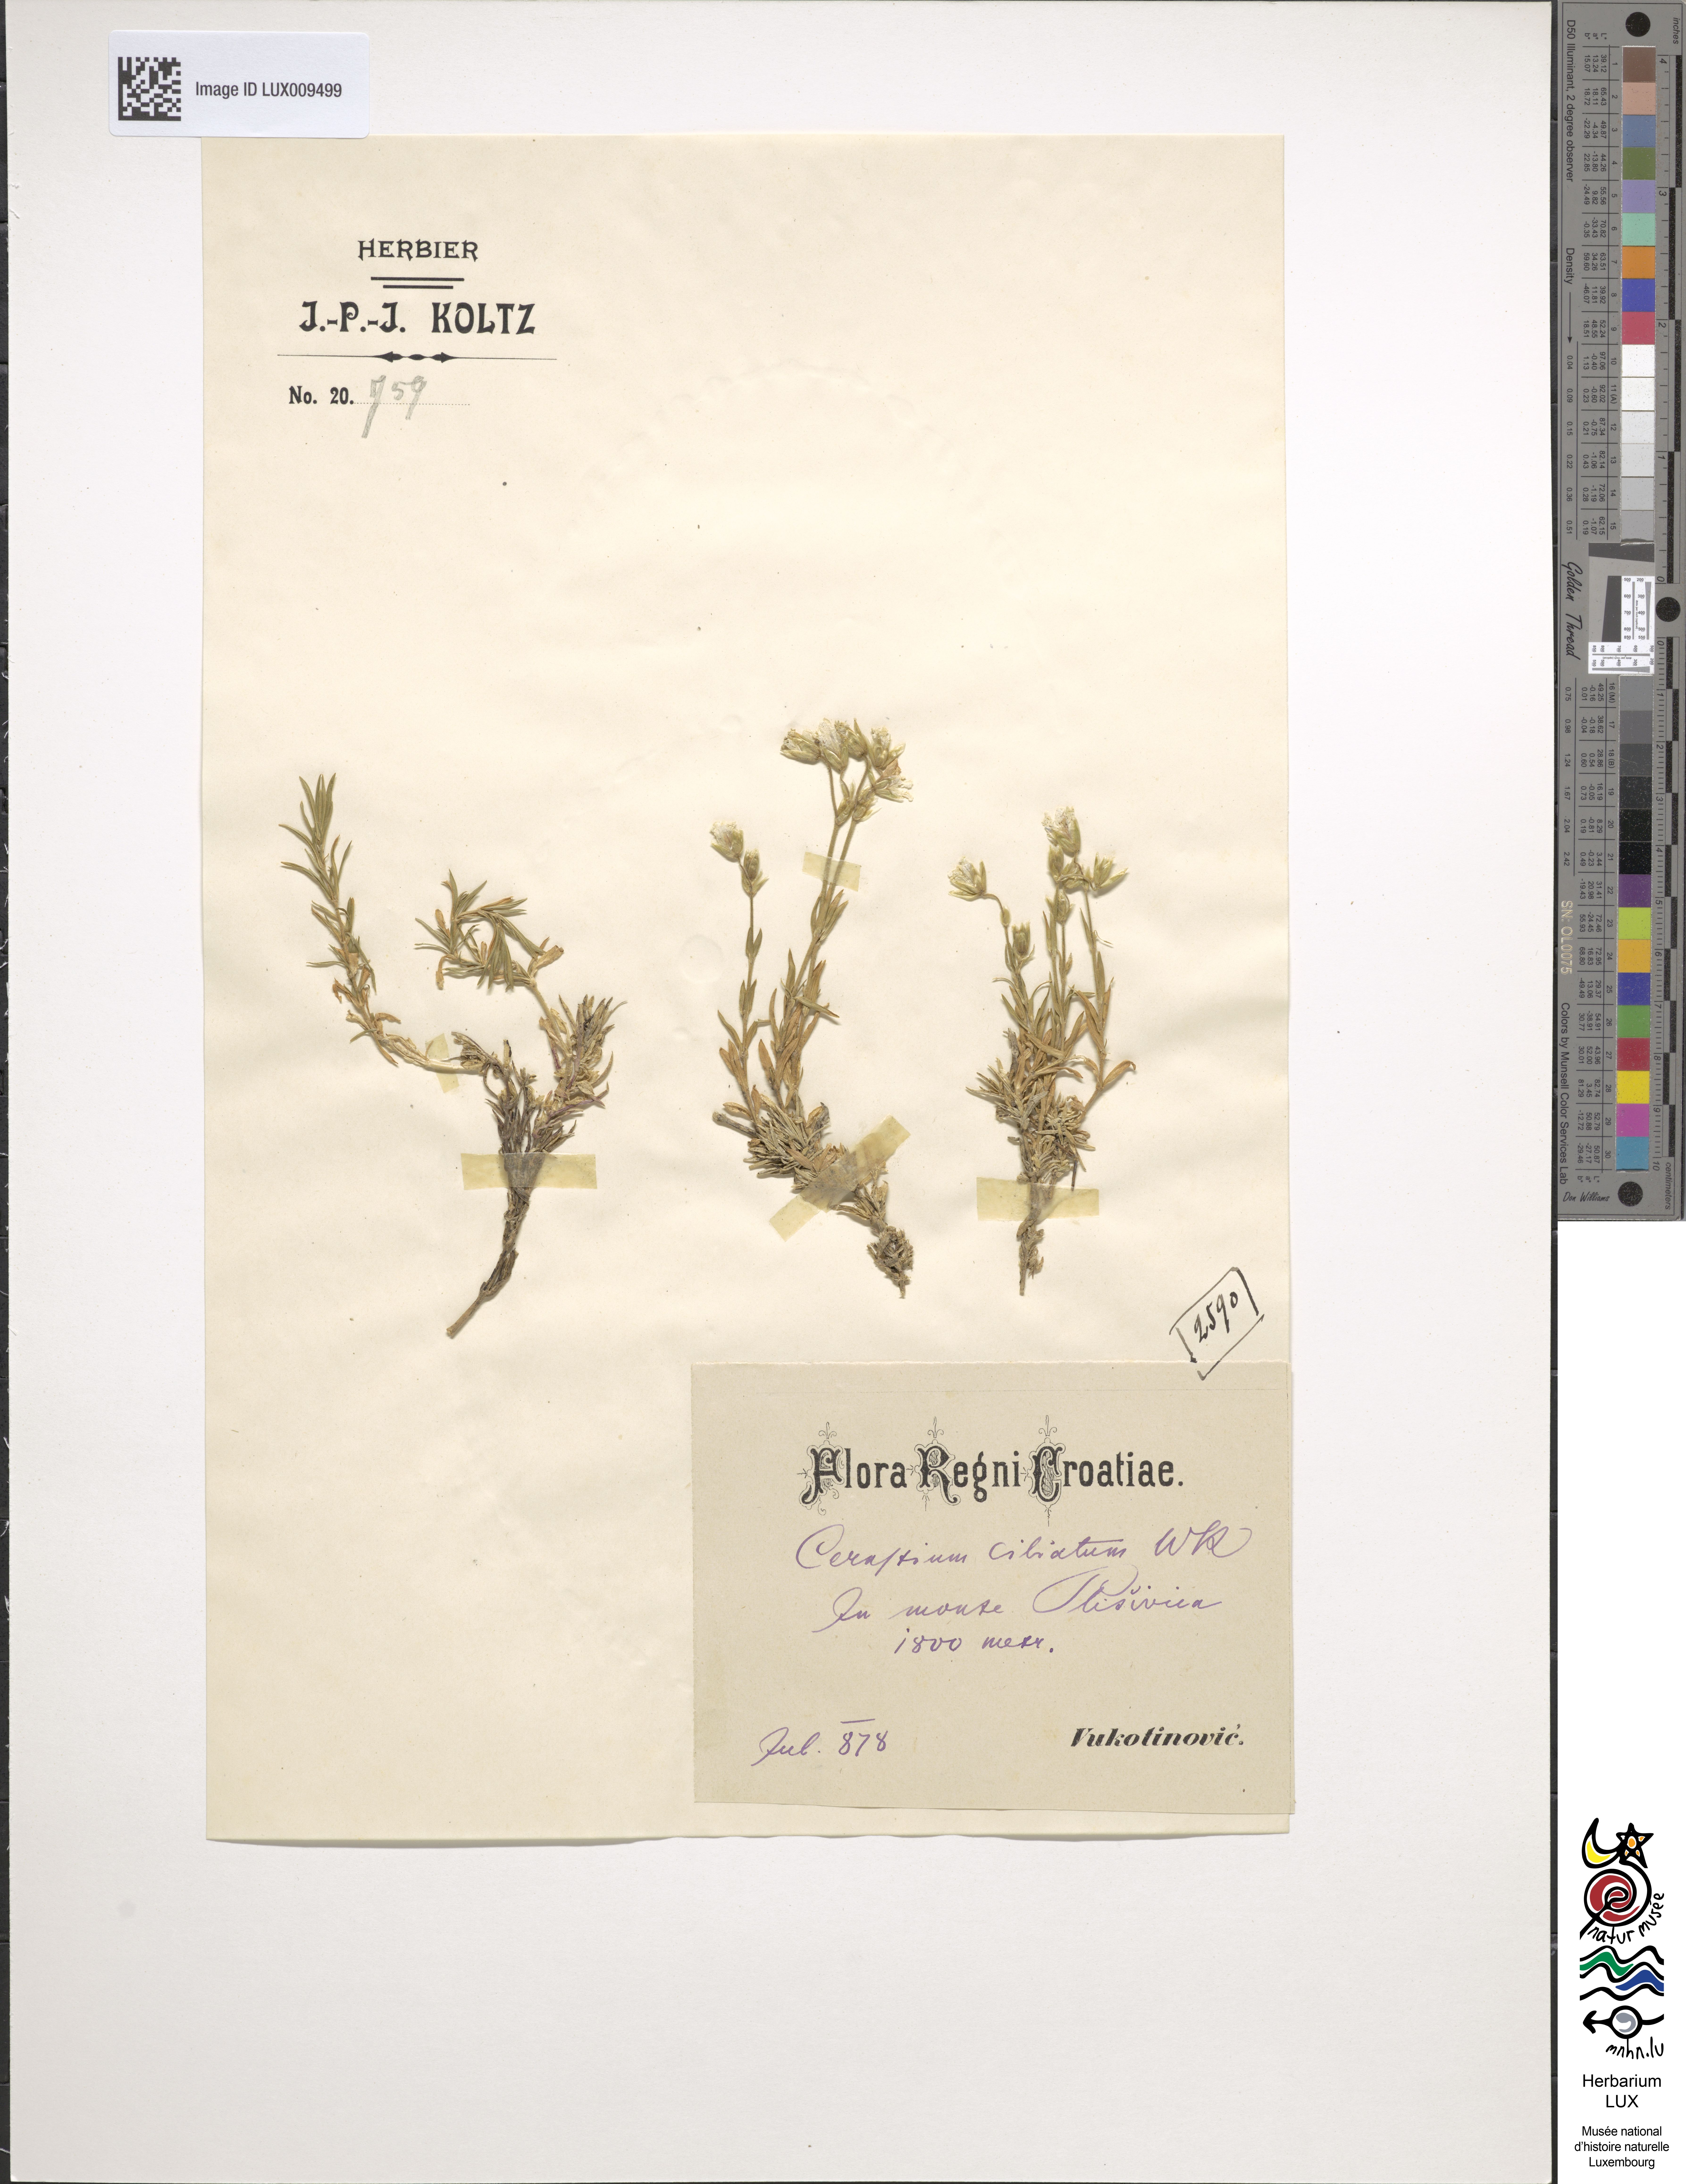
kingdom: Plantae
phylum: Tracheophyta
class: Magnoliopsida
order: Caryophyllales
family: Caryophyllaceae
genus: Cerastium
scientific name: Cerastium arvense
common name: Field mouse-ear
